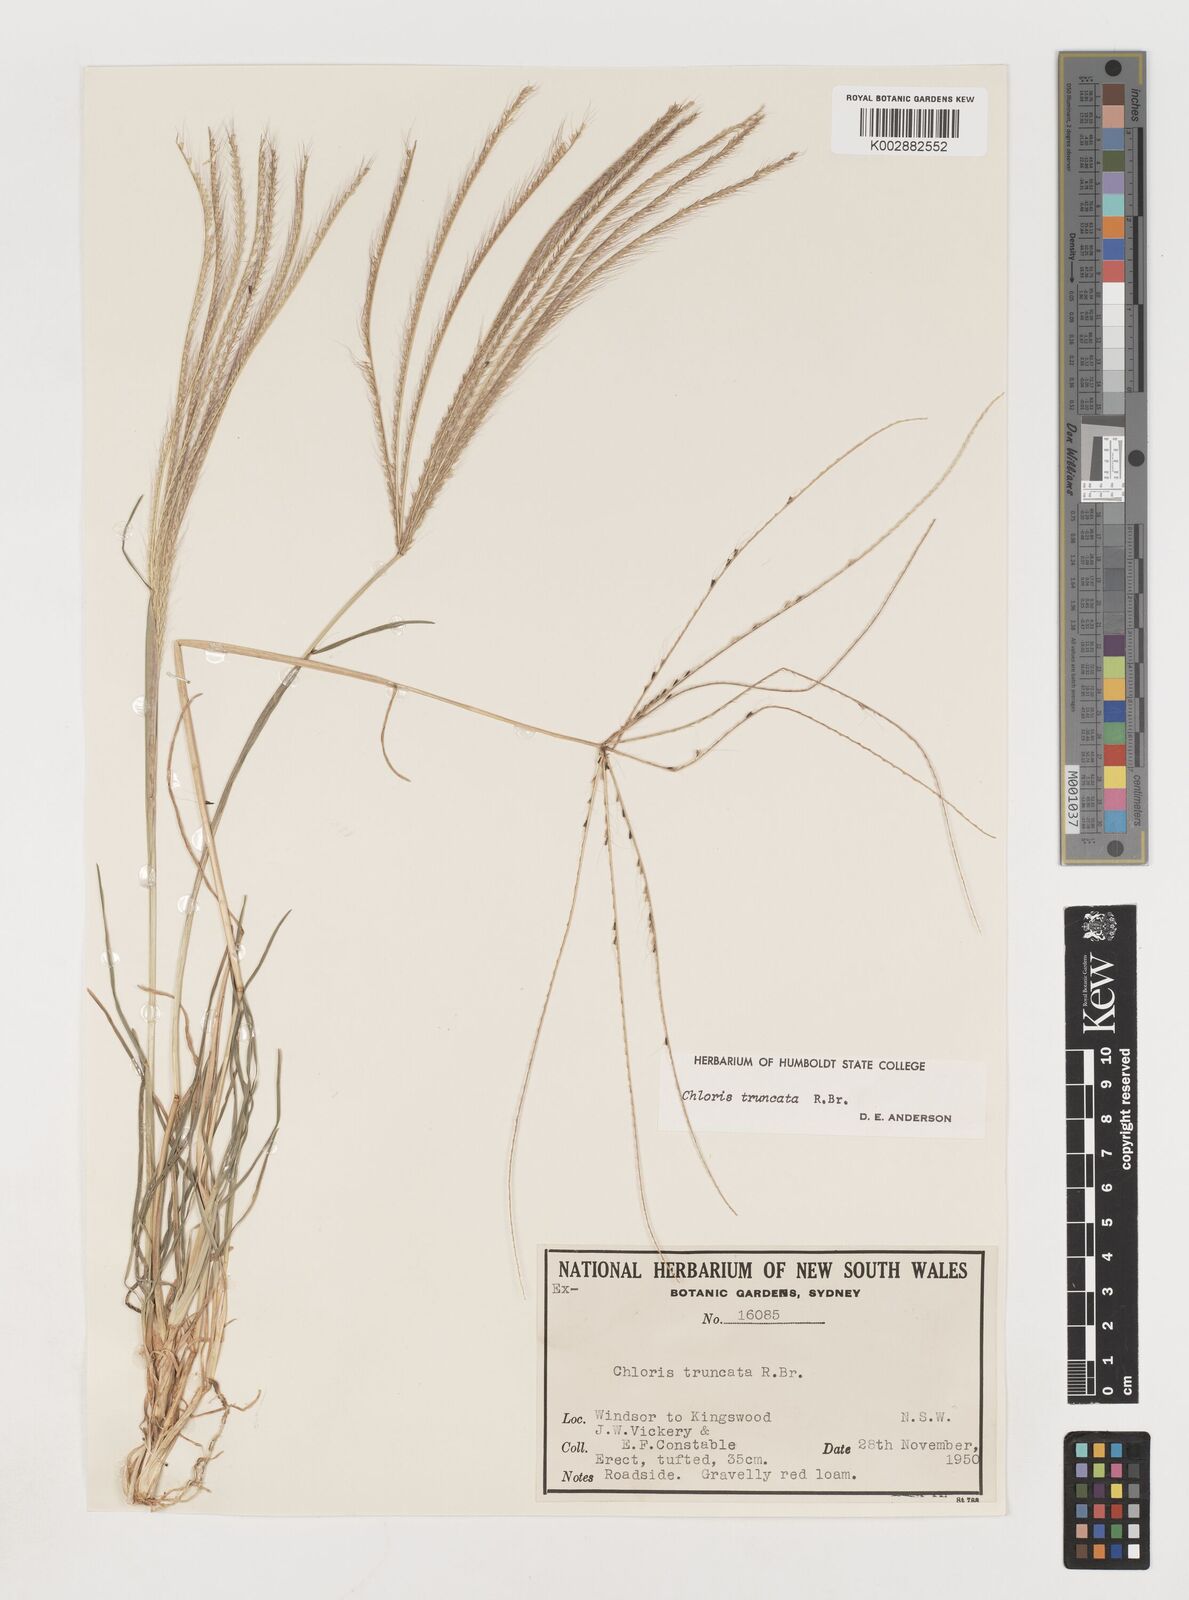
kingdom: Plantae
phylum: Tracheophyta
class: Liliopsida
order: Poales
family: Poaceae
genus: Chloris
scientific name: Chloris truncata
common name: Windmill-grass
